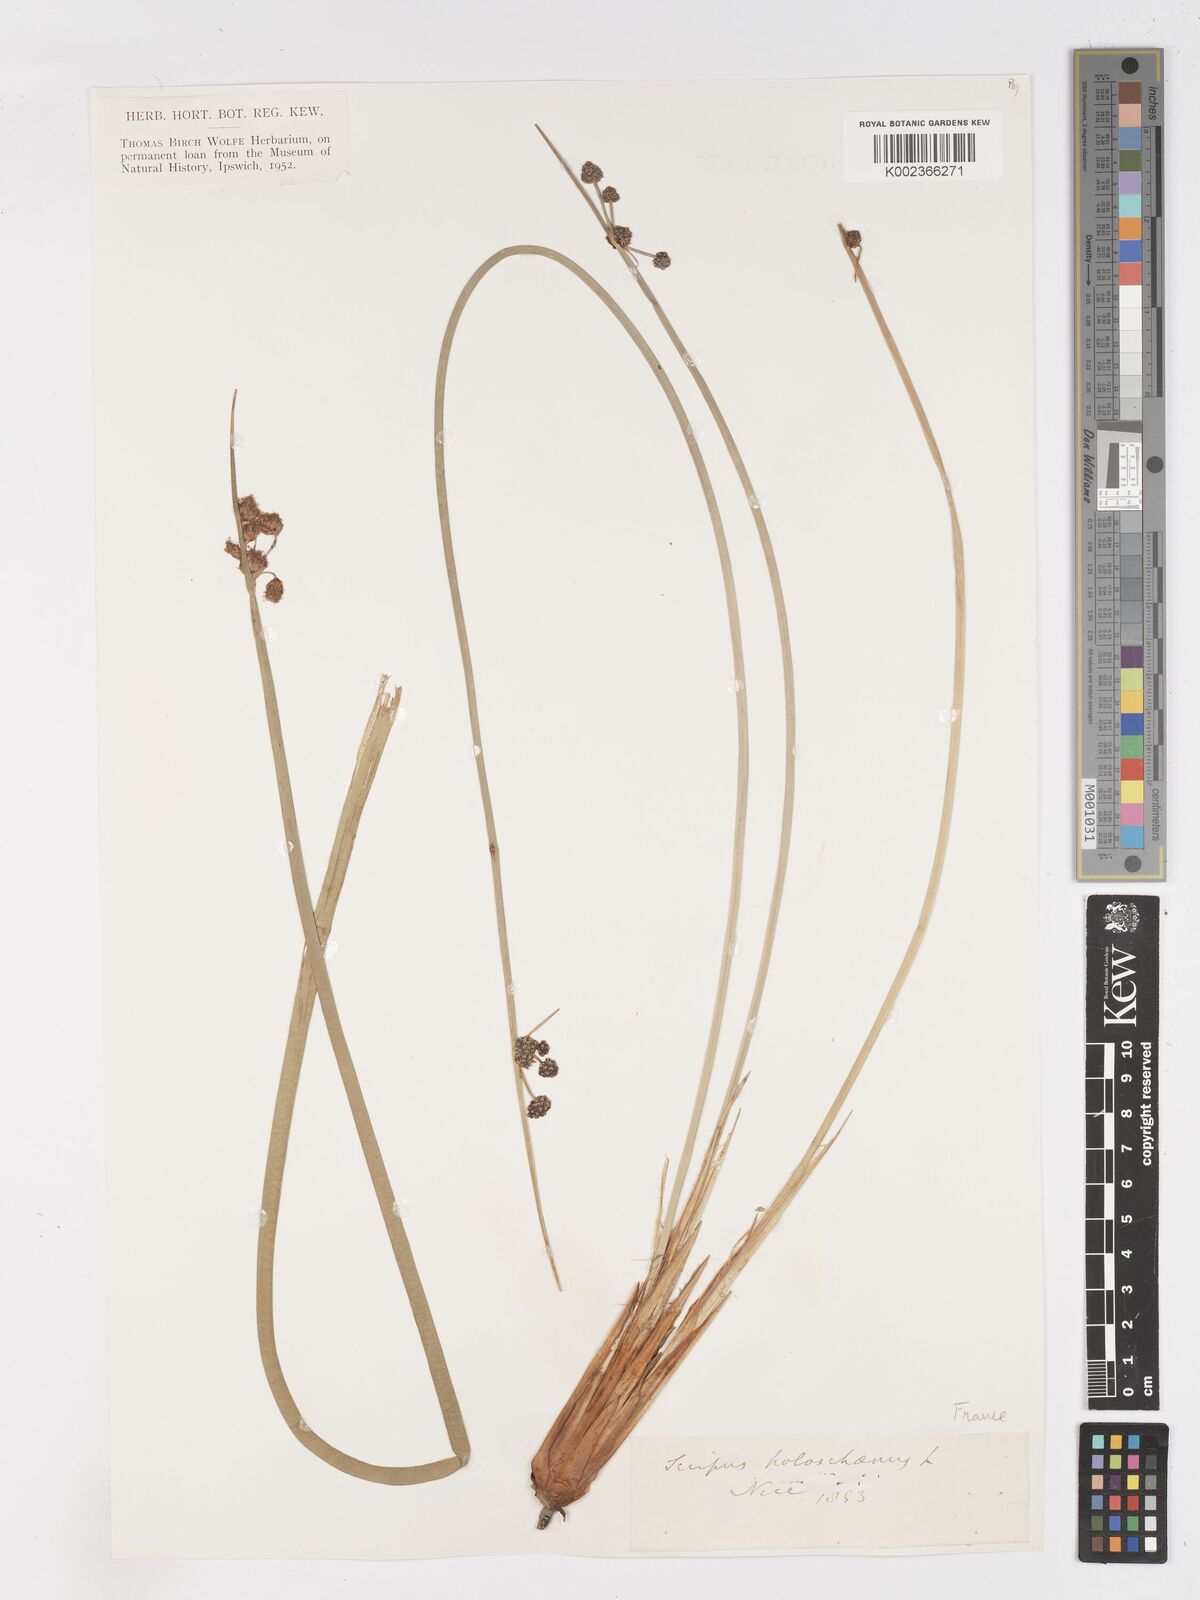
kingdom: Plantae
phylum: Tracheophyta
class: Liliopsida
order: Poales
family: Cyperaceae
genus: Scirpoides
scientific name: Scirpoides holoschoenus
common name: Round-headed club-rush
